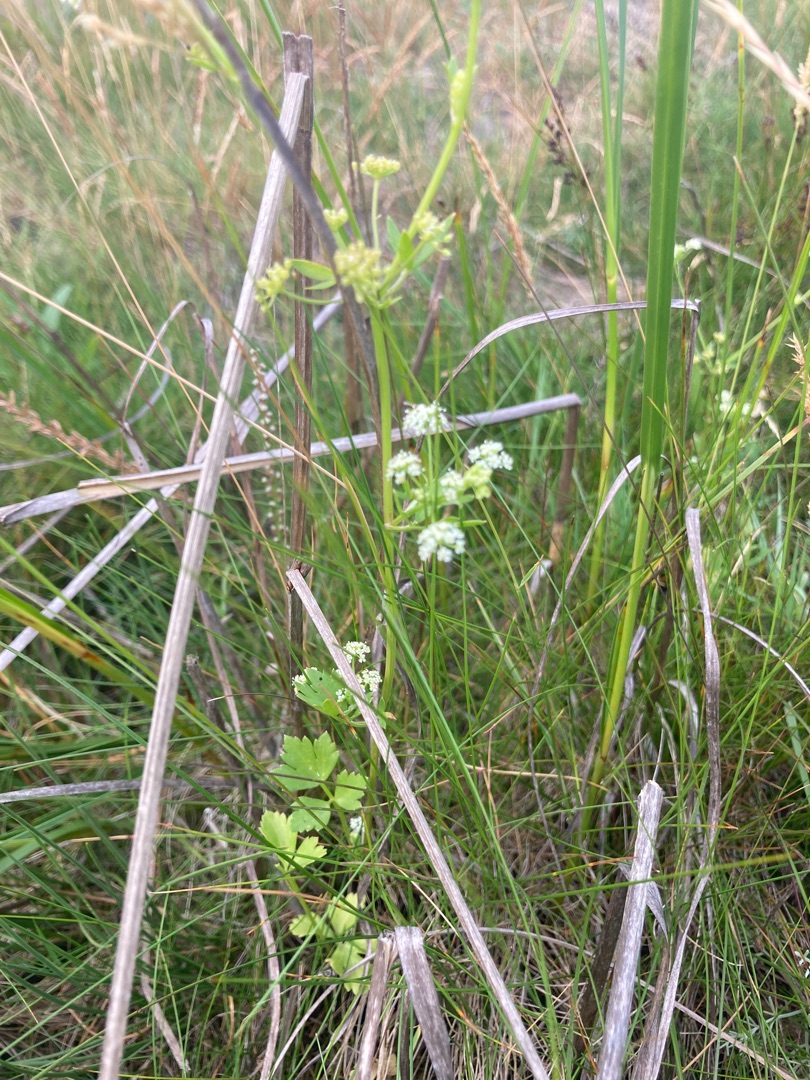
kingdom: Plantae
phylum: Tracheophyta
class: Magnoliopsida
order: Apiales
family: Apiaceae
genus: Apium
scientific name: Apium graveolens
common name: Vild selleri
